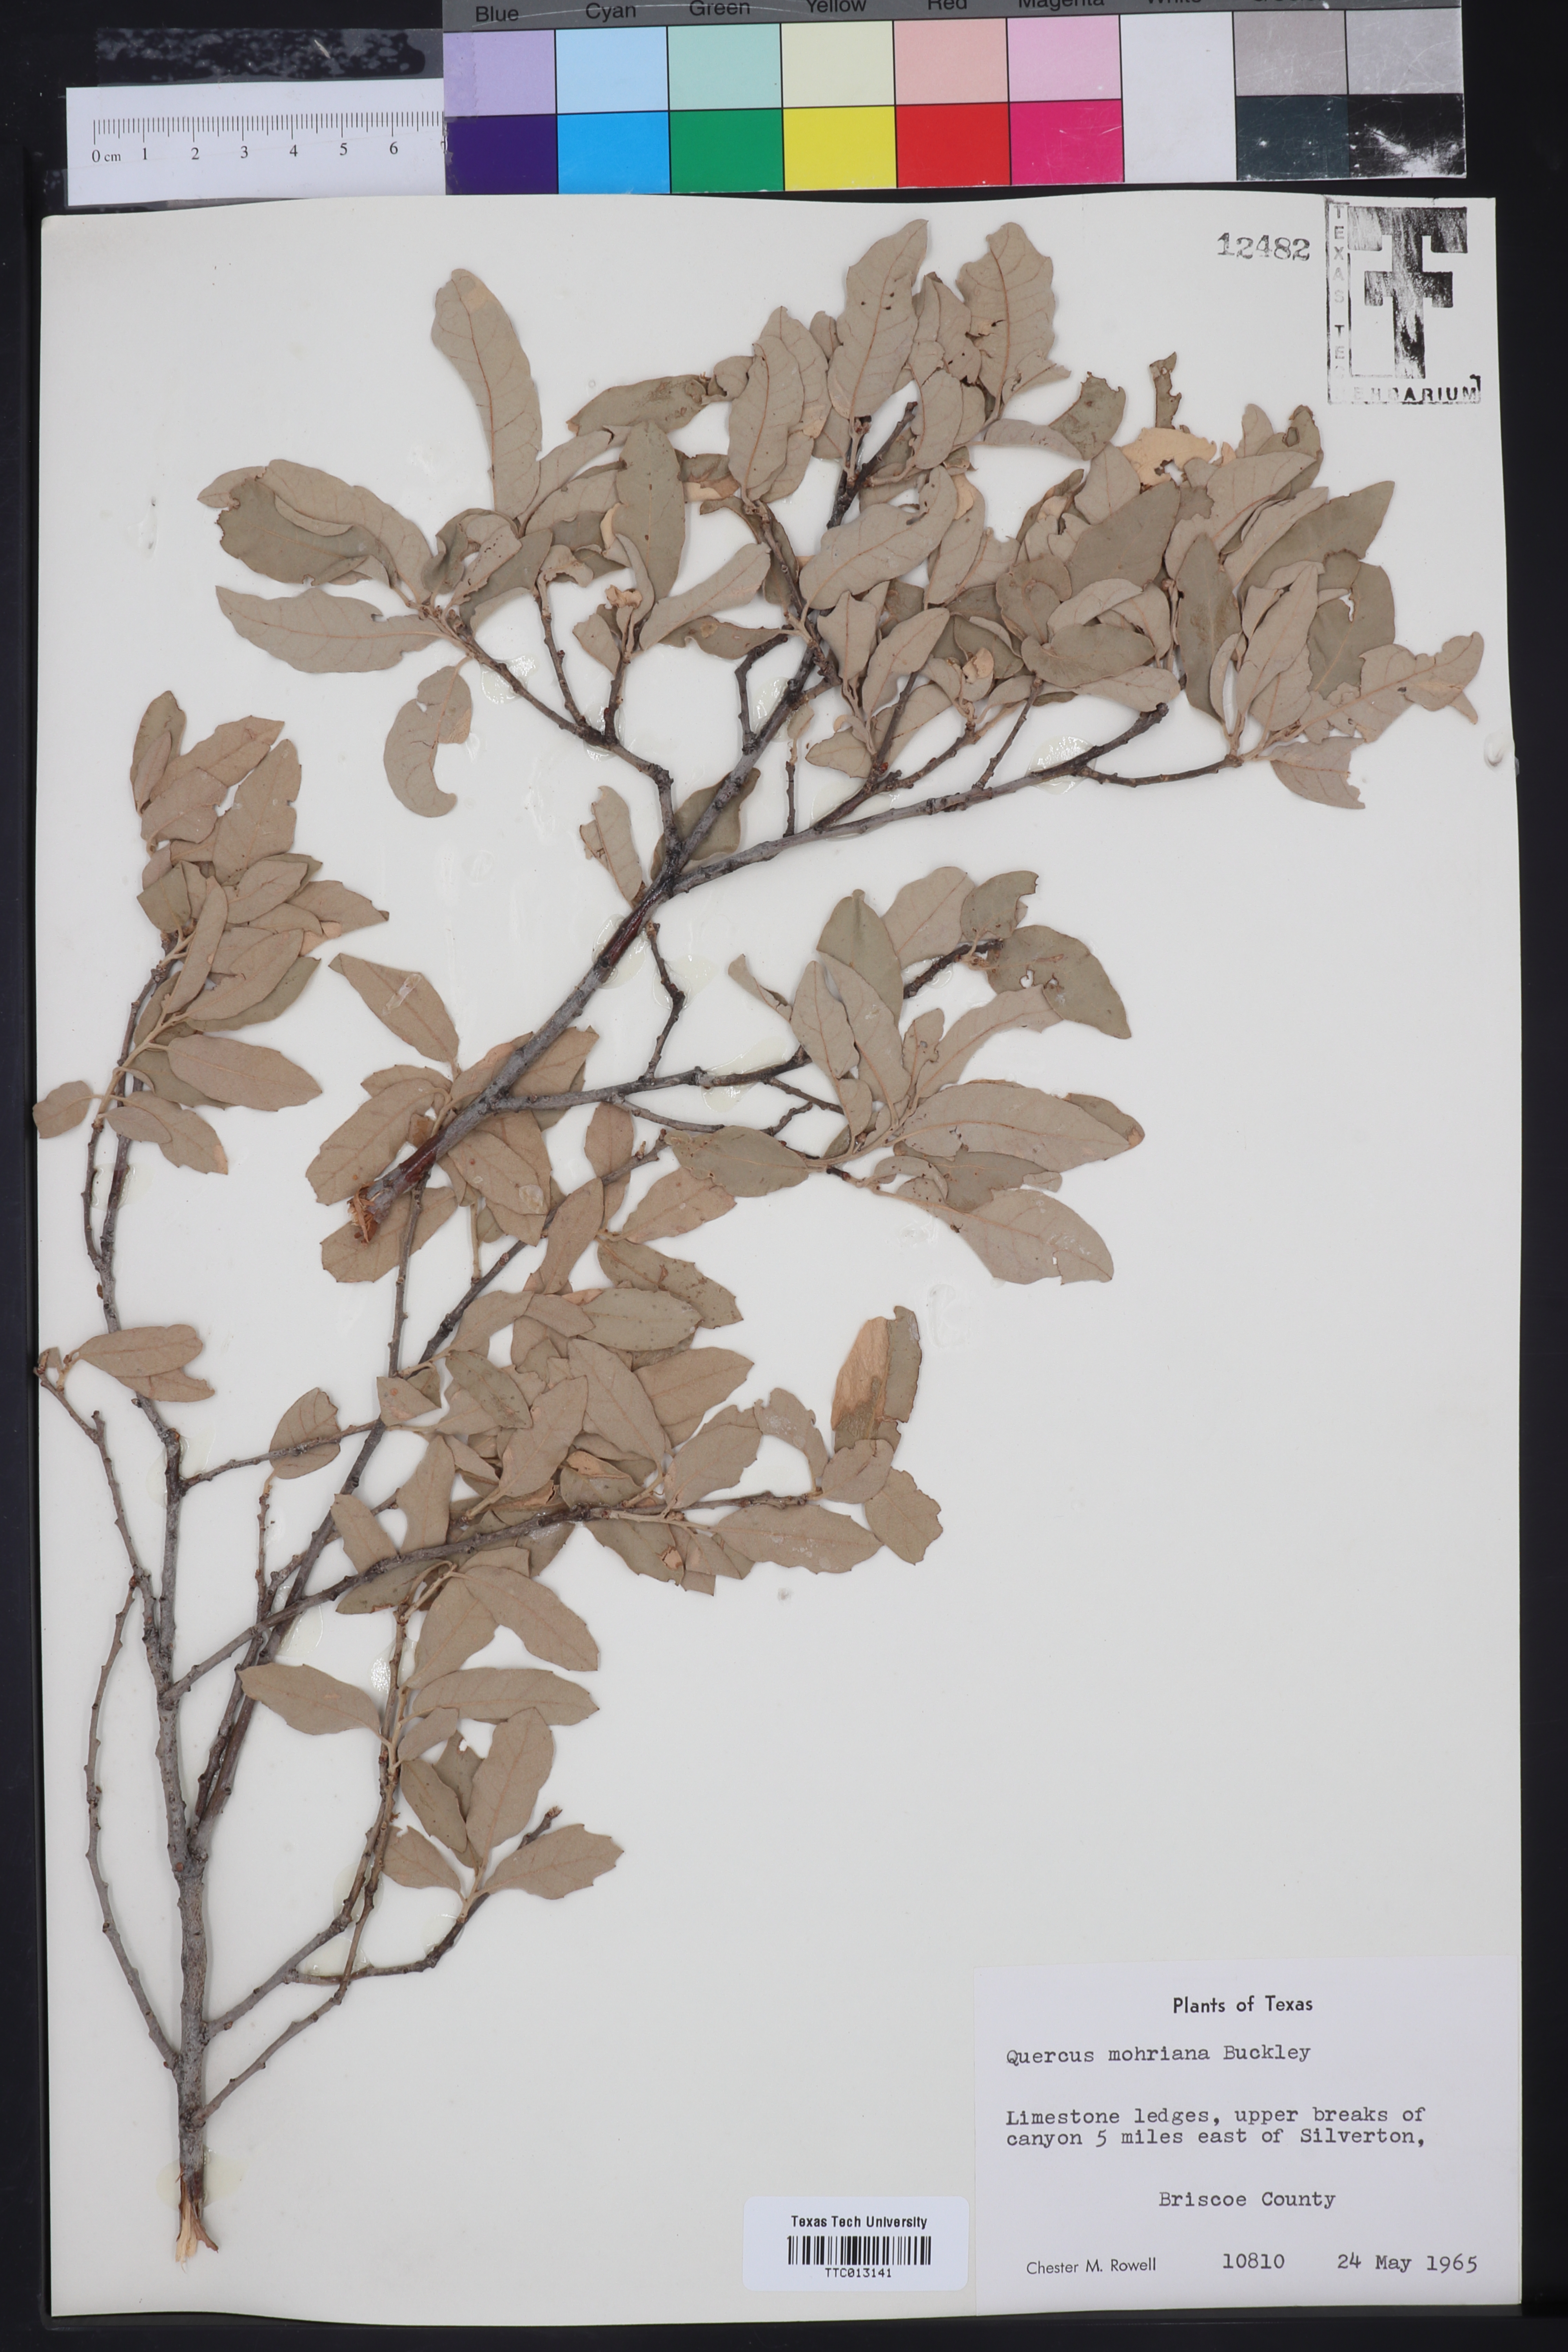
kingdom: Plantae
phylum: Tracheophyta
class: Magnoliopsida
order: Fagales
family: Fagaceae
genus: Quercus
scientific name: Quercus mohriana
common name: Mohr oak
